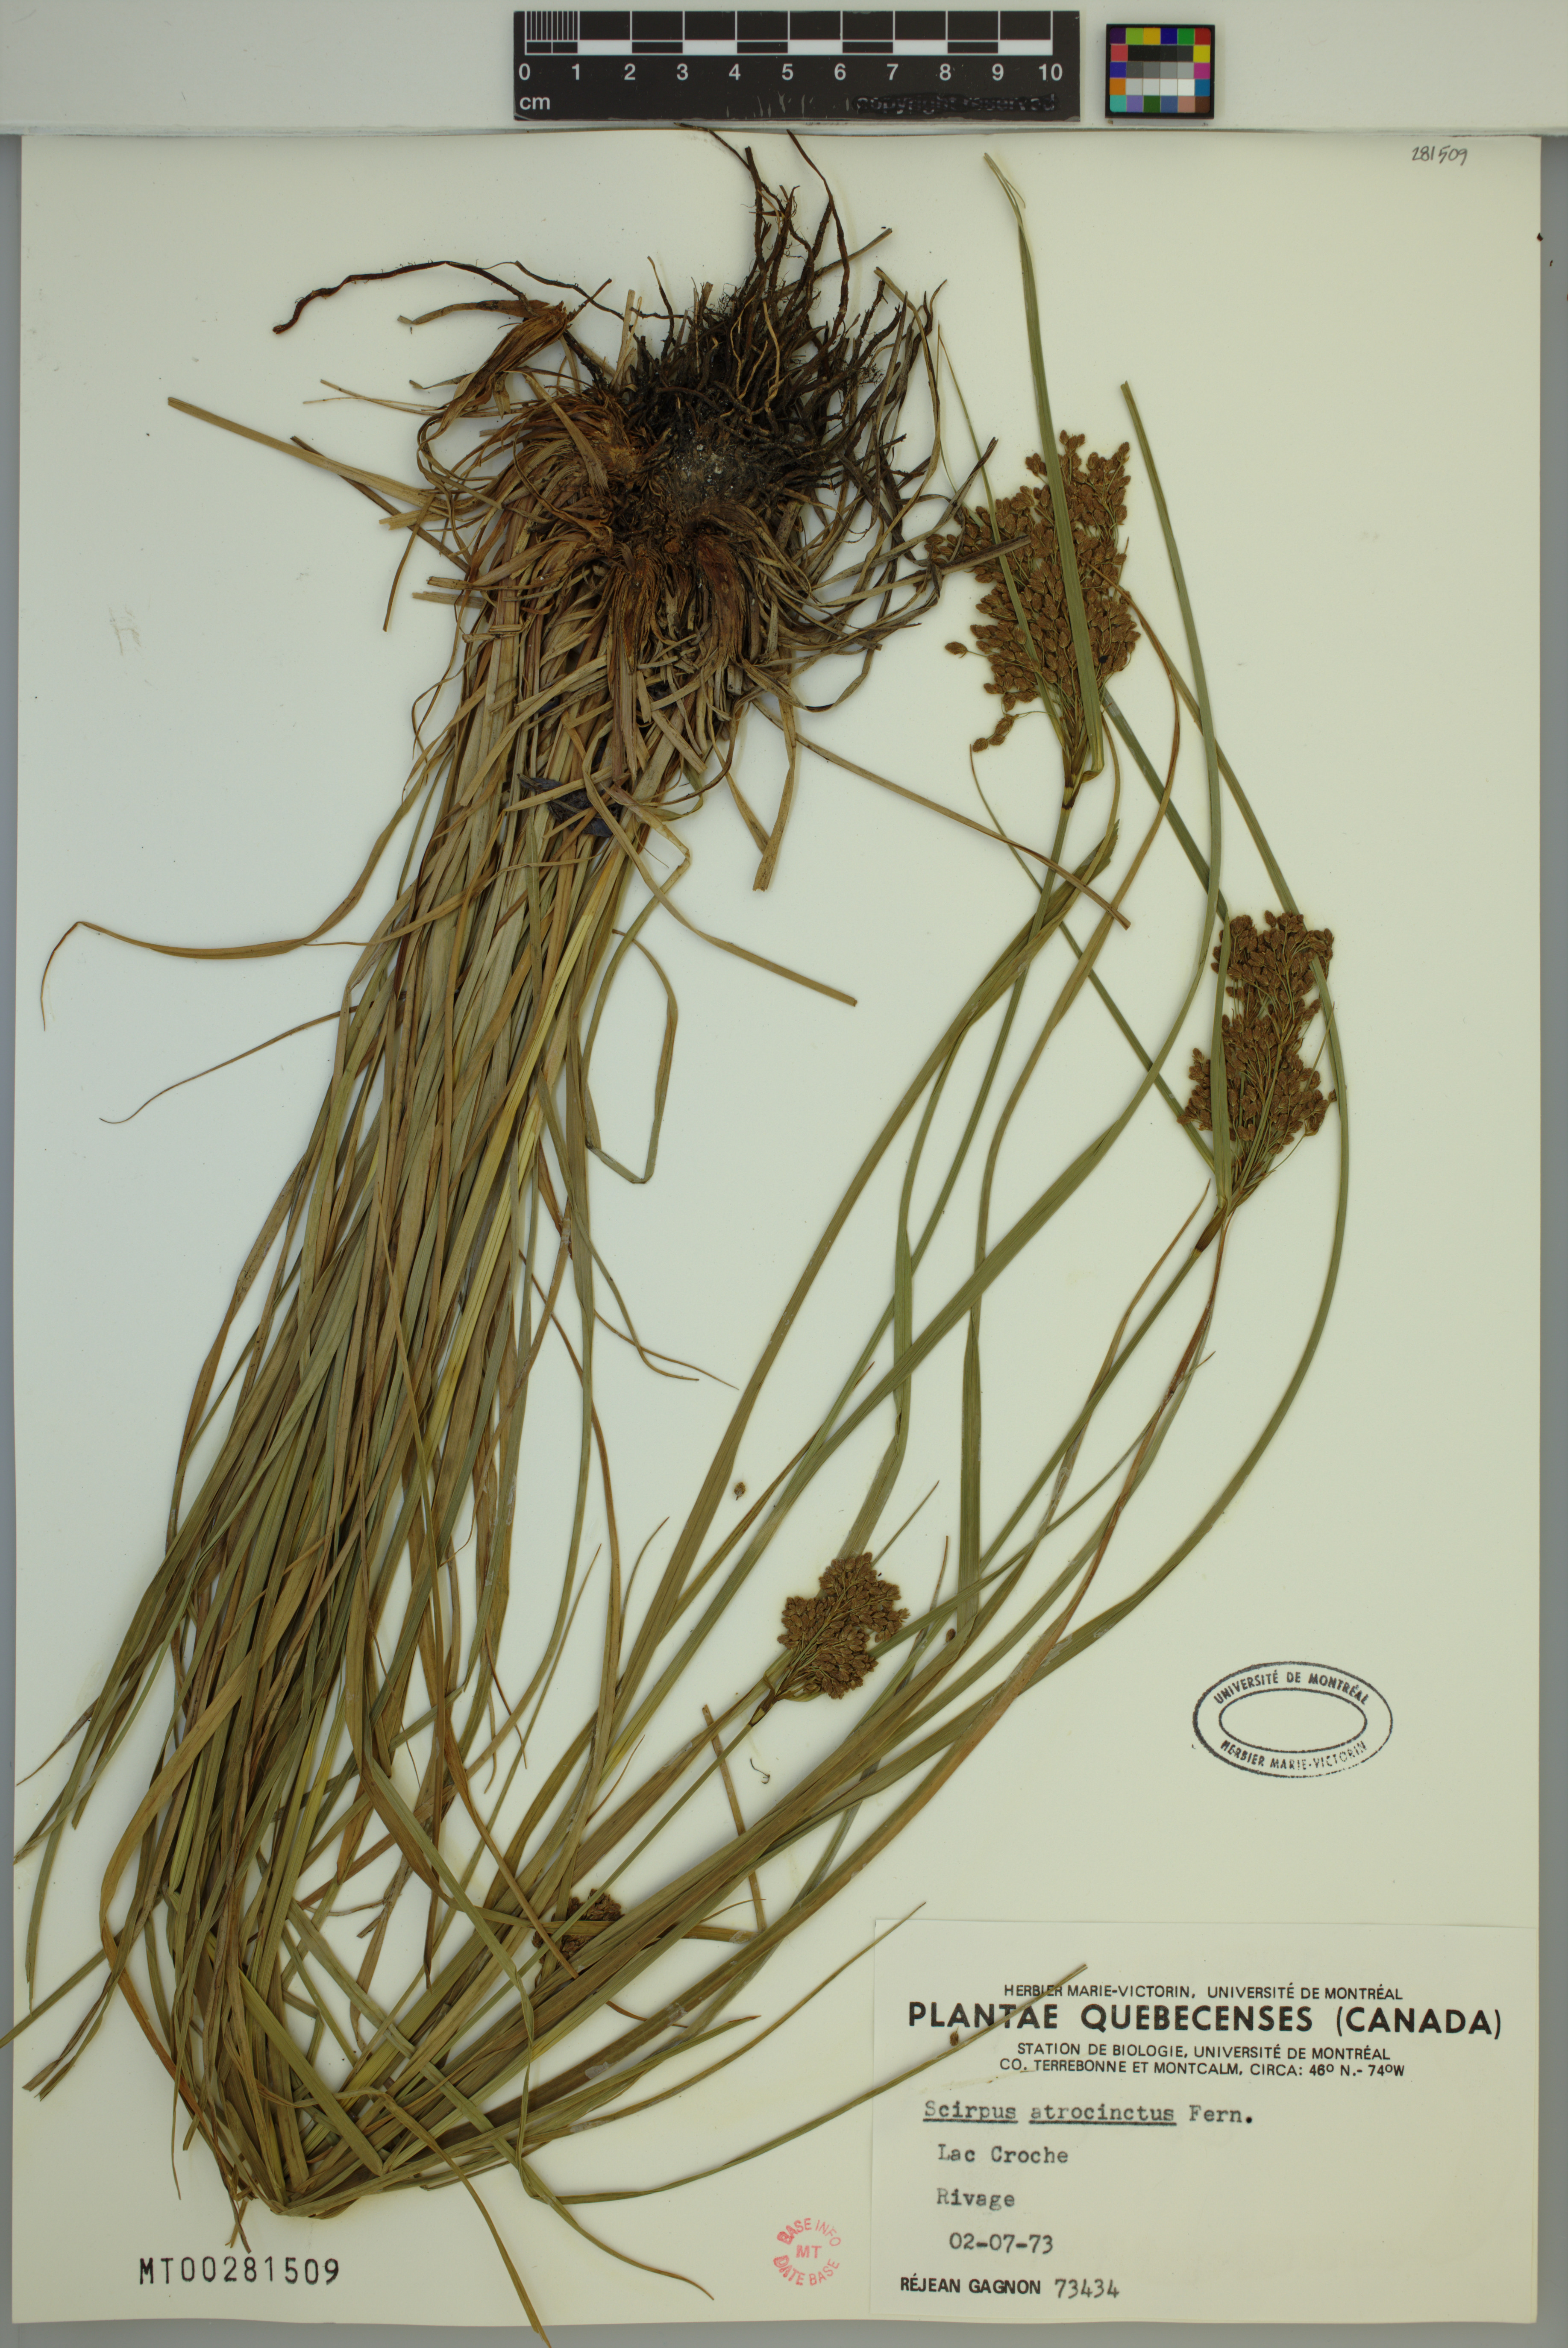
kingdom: Plantae
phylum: Tracheophyta
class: Liliopsida
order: Poales
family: Cyperaceae
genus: Scirpus
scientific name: Scirpus atrocinctus
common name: Black-girdled bulrush
